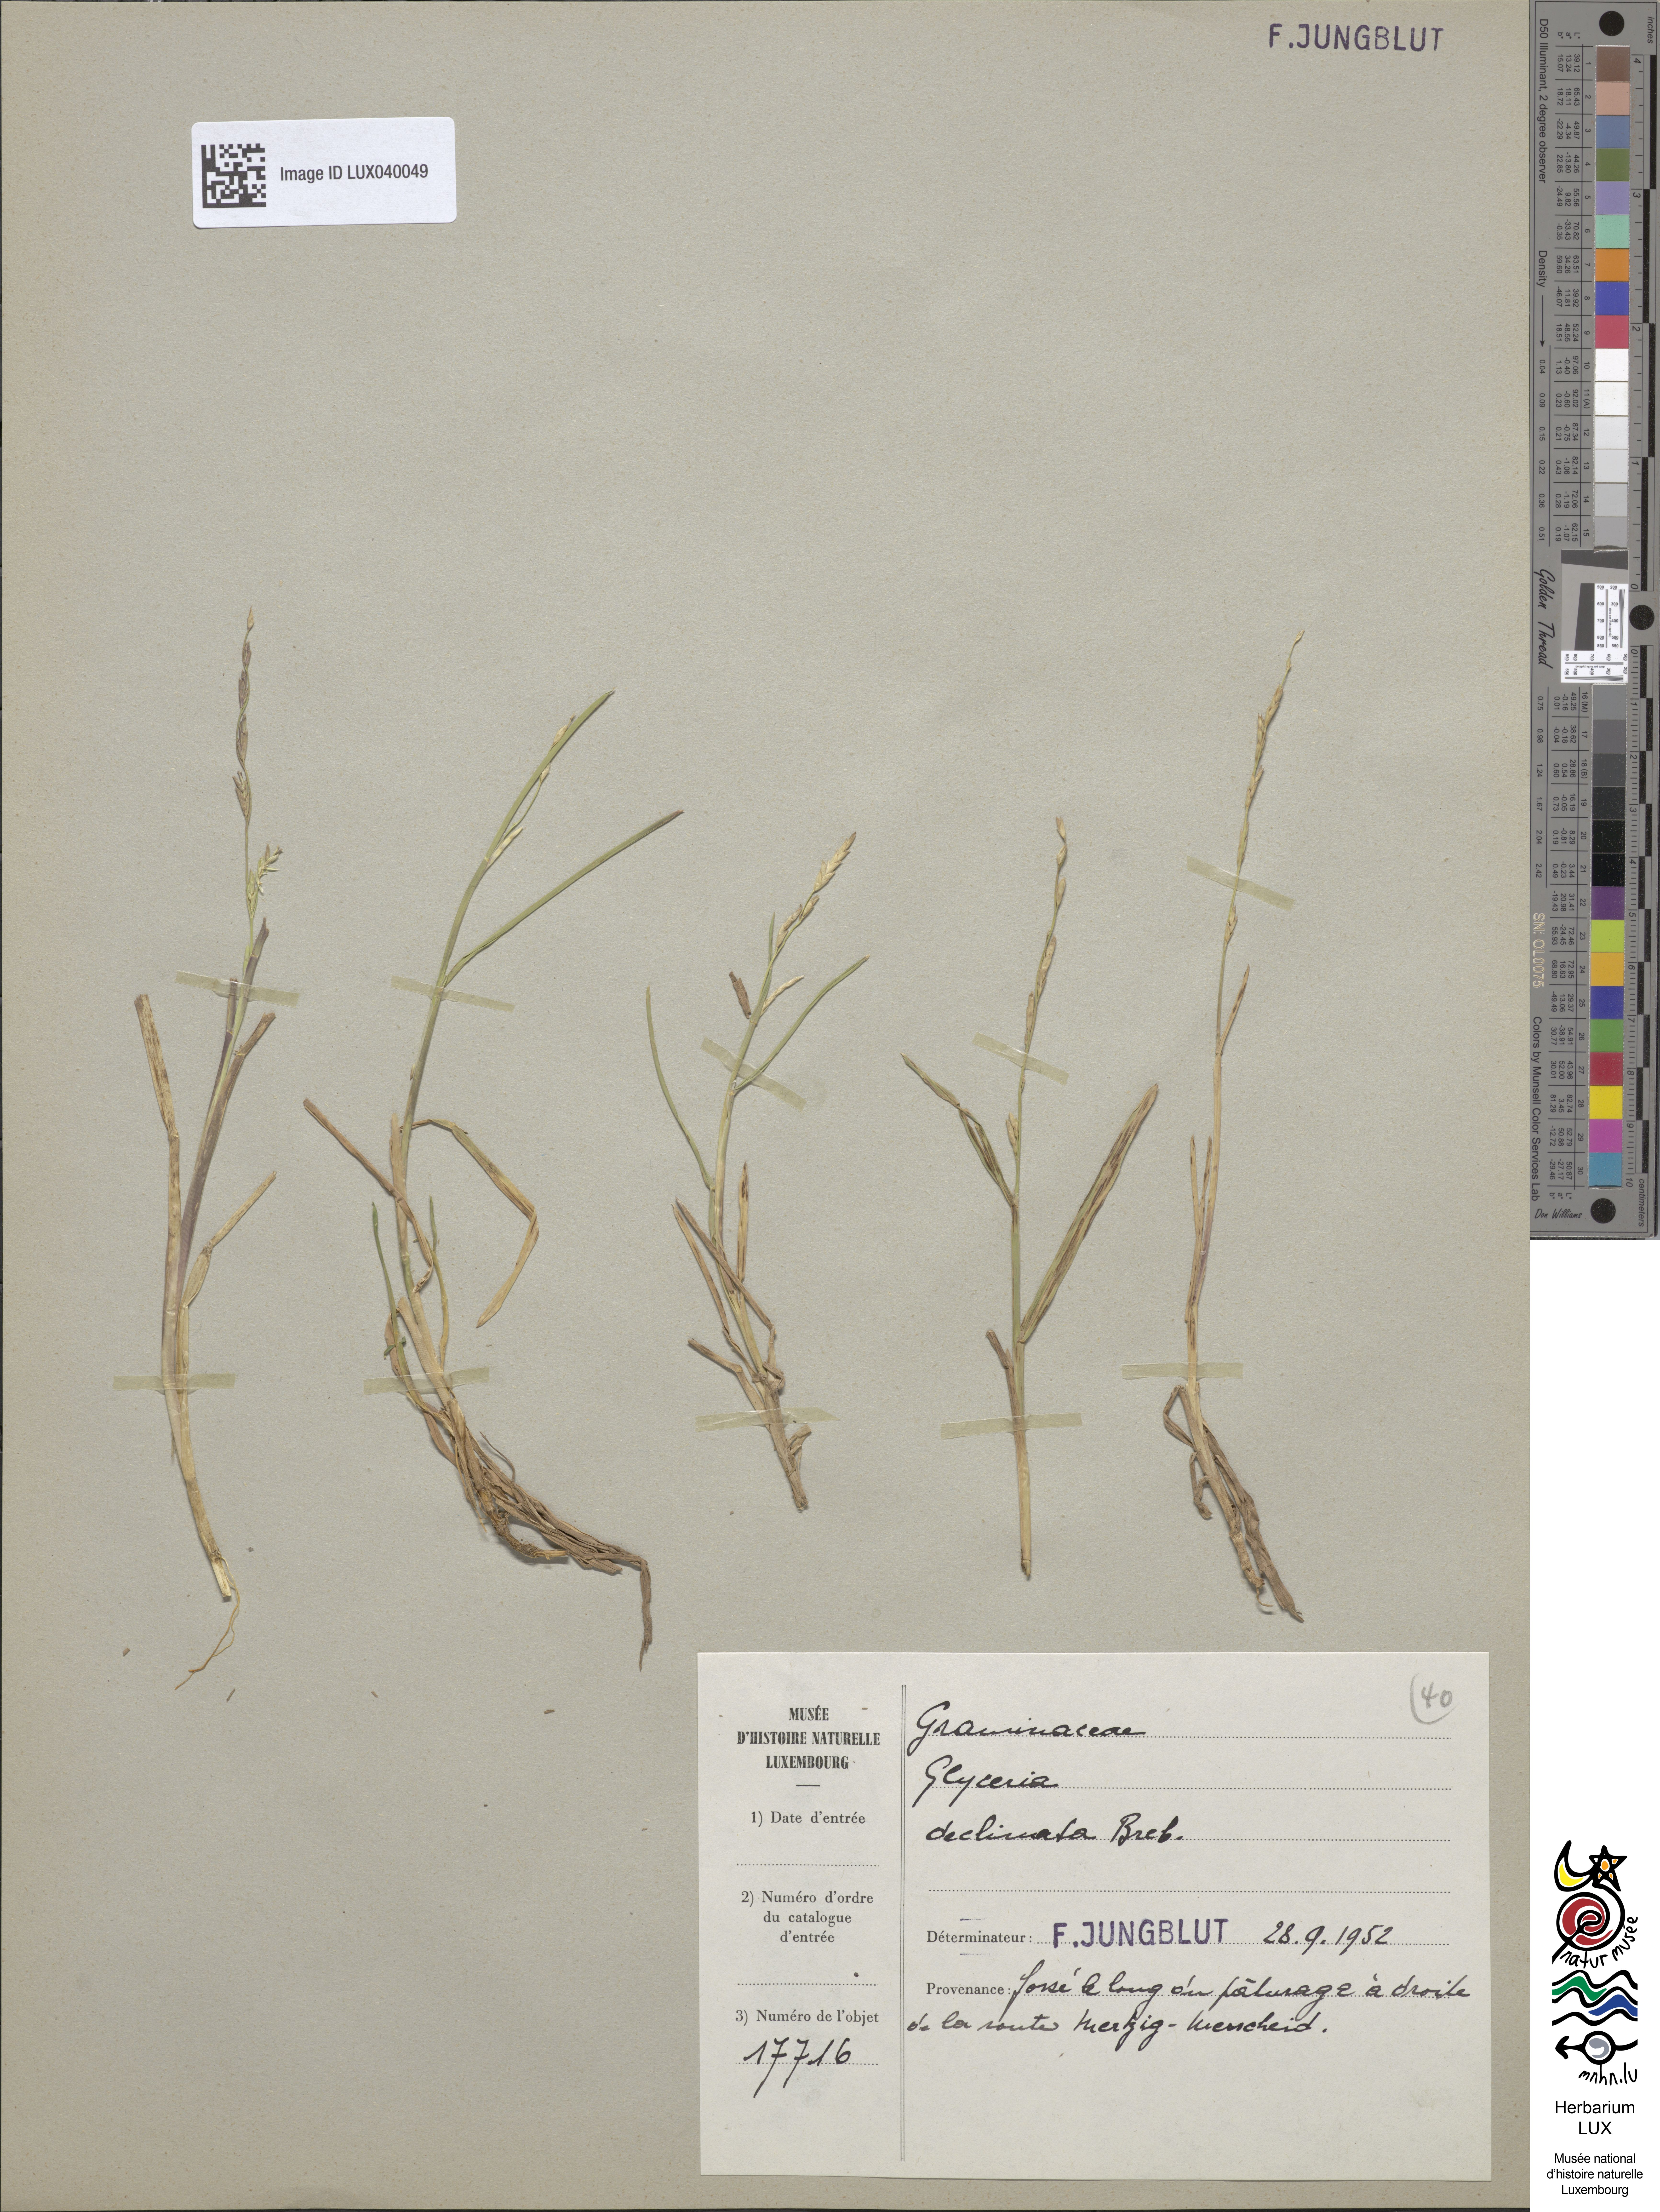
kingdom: Plantae
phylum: Tracheophyta
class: Liliopsida
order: Poales
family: Poaceae
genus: Glyceria
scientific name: Glyceria declinata
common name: Small sweet-grass
